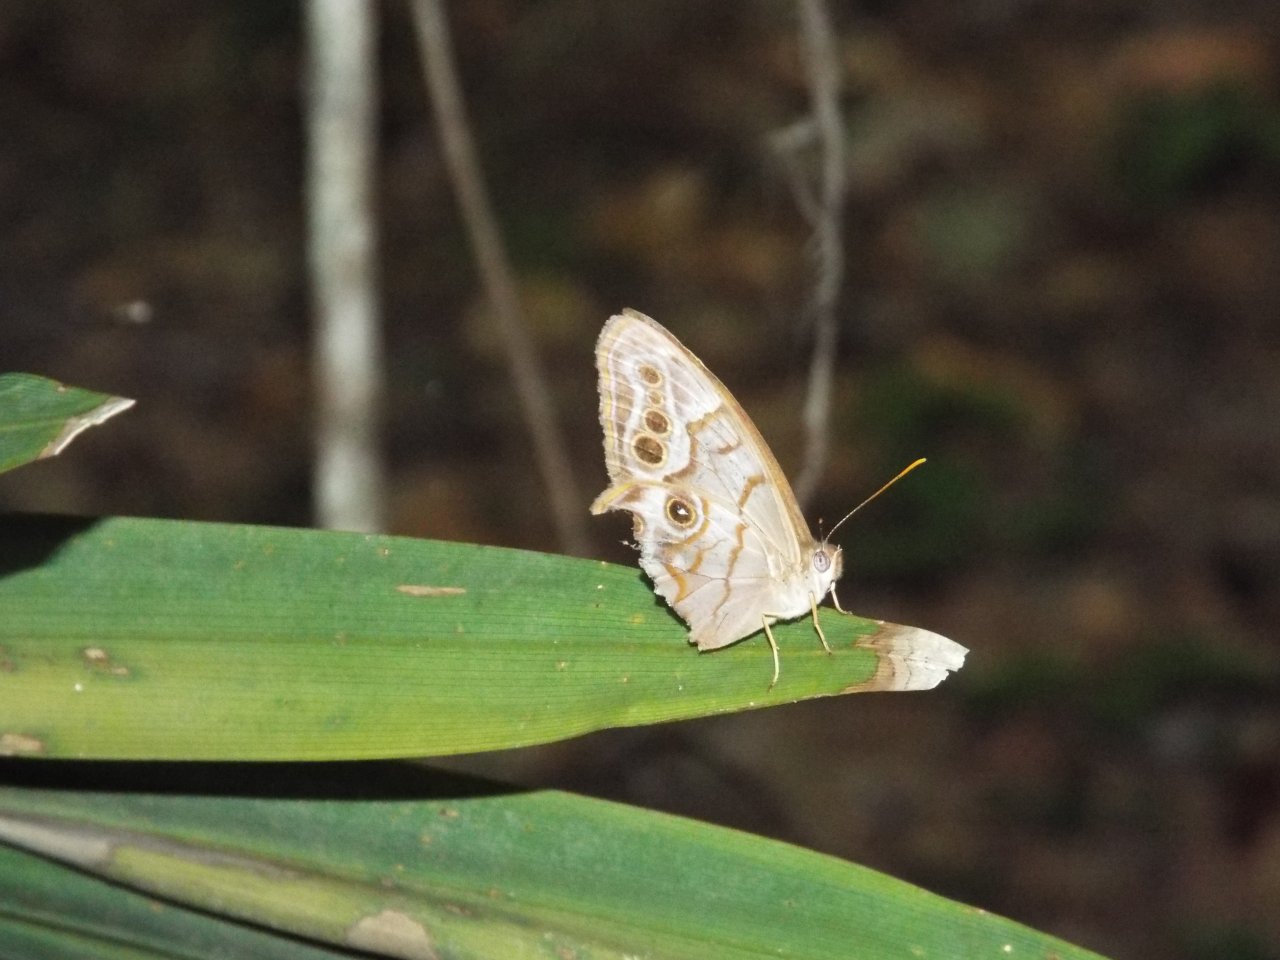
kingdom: Animalia
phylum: Arthropoda
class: Insecta
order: Lepidoptera
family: Nymphalidae
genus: Enodia
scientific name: Enodia portlandia
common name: Southern Pearly Eye
